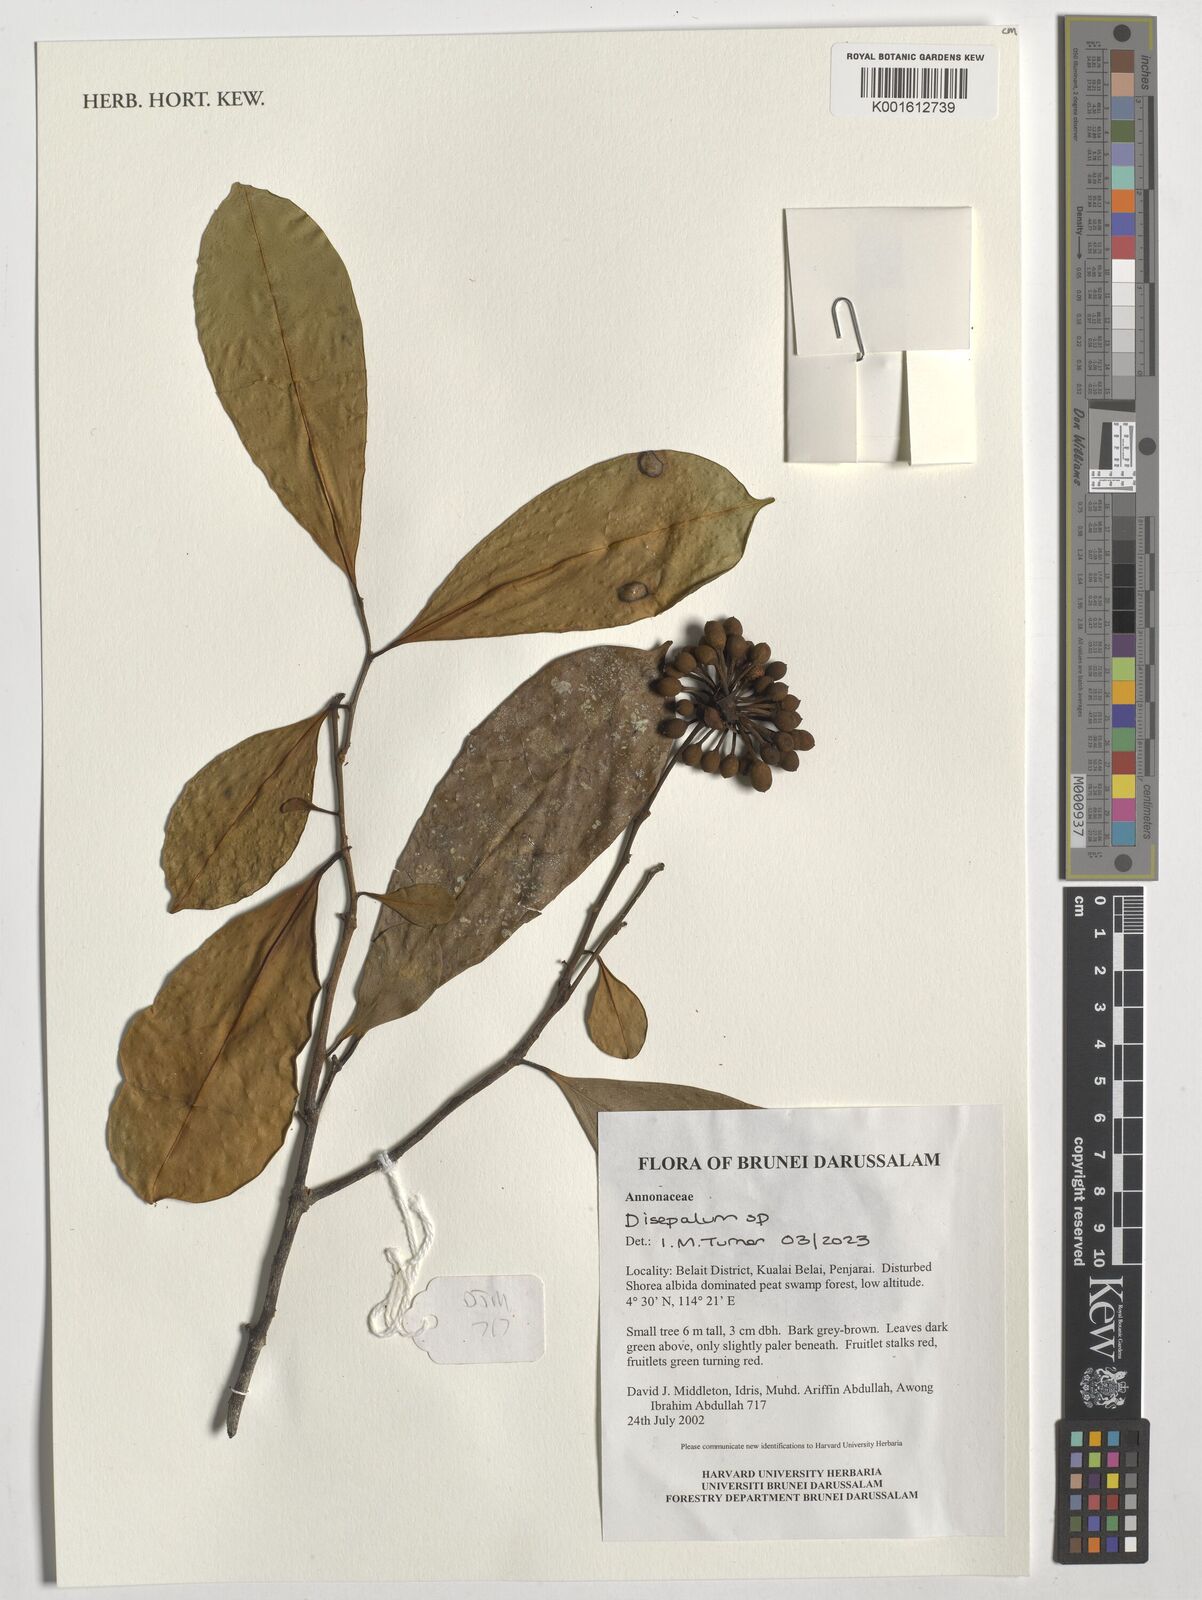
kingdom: Plantae
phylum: Tracheophyta
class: Magnoliopsida
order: Magnoliales
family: Annonaceae
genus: Disepalum
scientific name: Disepalum
